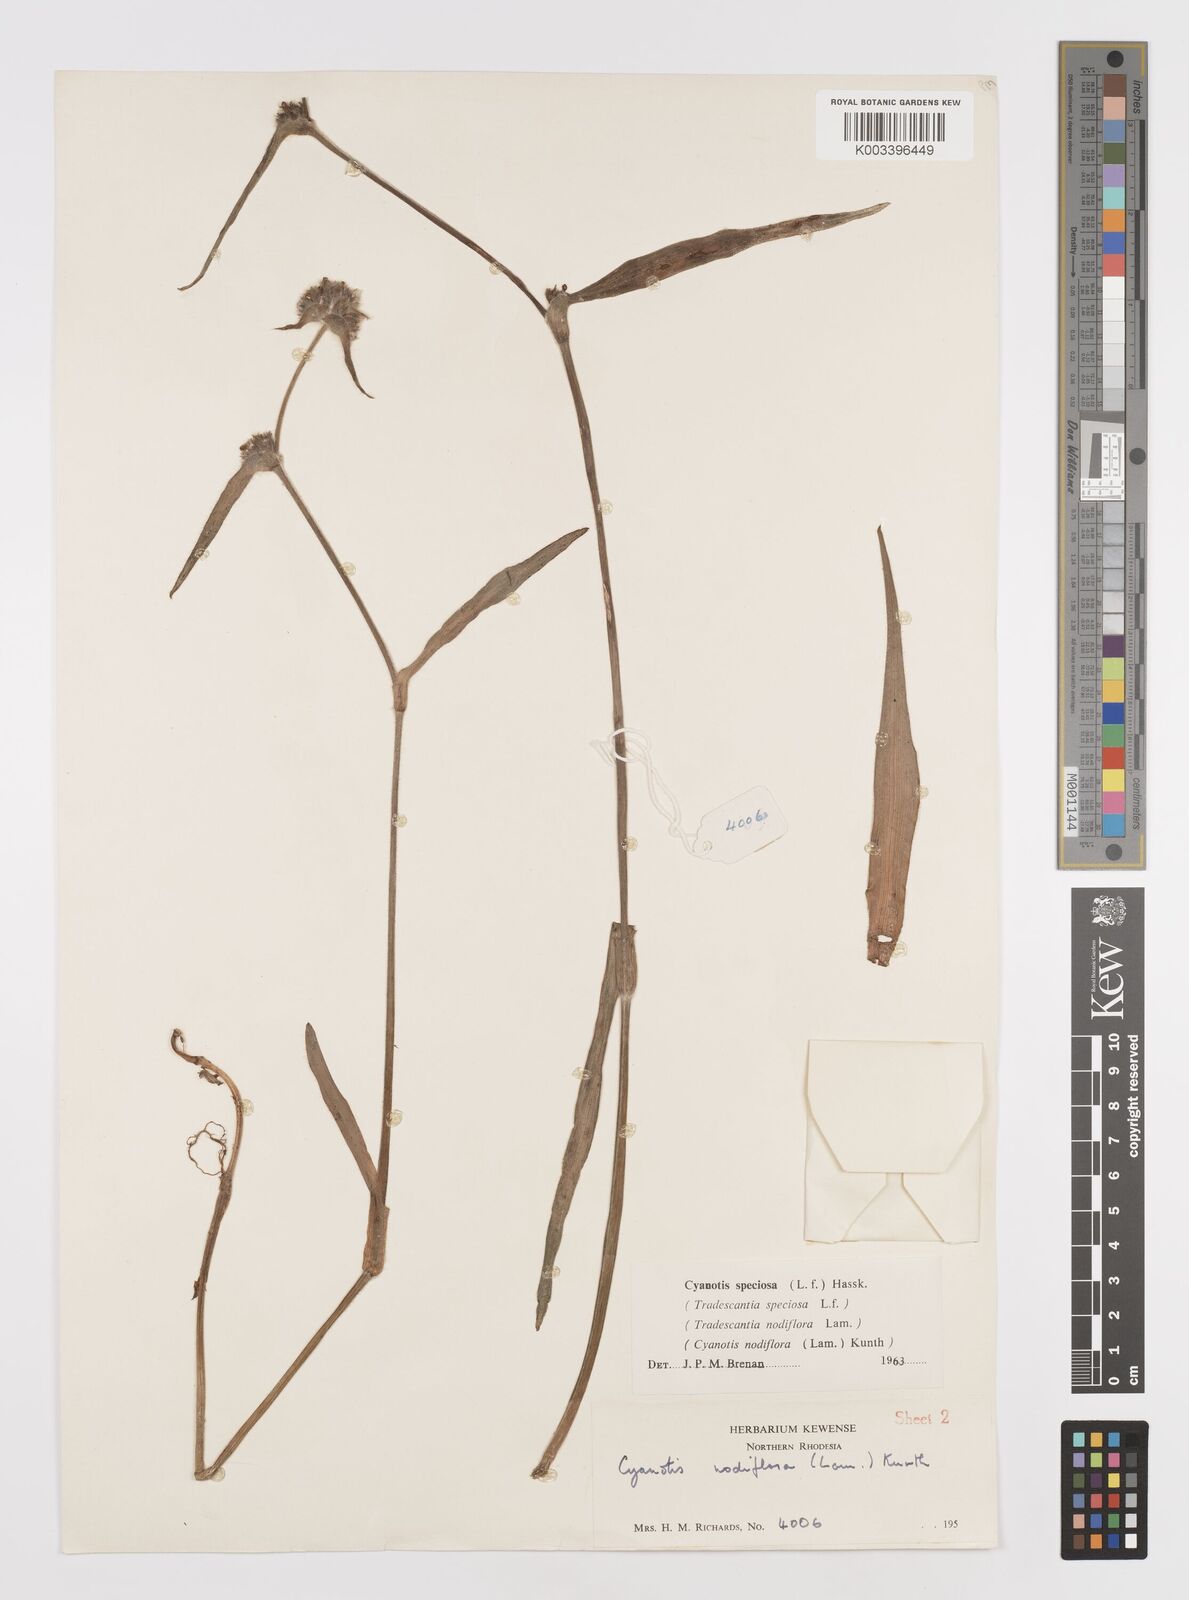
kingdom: Plantae
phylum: Tracheophyta
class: Liliopsida
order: Commelinales
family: Commelinaceae
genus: Cyanotis
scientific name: Cyanotis speciosa
